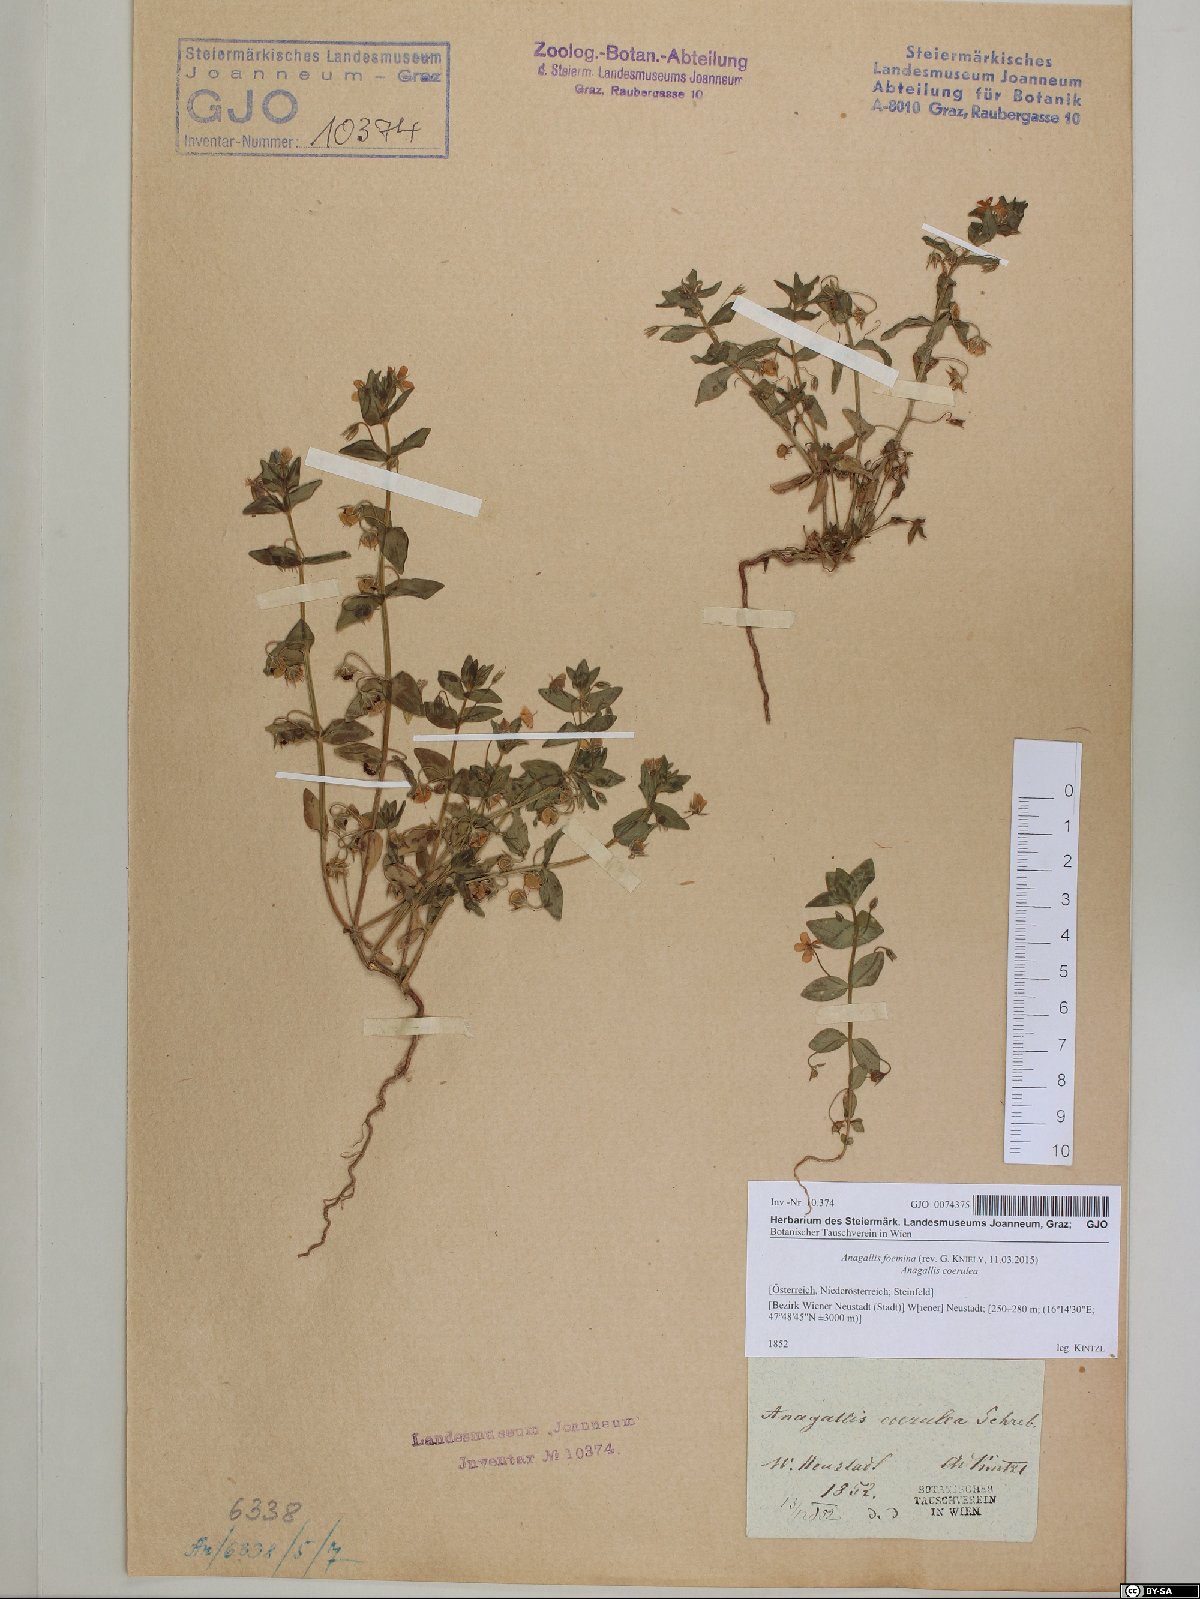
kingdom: Plantae
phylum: Tracheophyta
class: Magnoliopsida
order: Ericales
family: Primulaceae
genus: Lysimachia
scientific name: Lysimachia foemina
